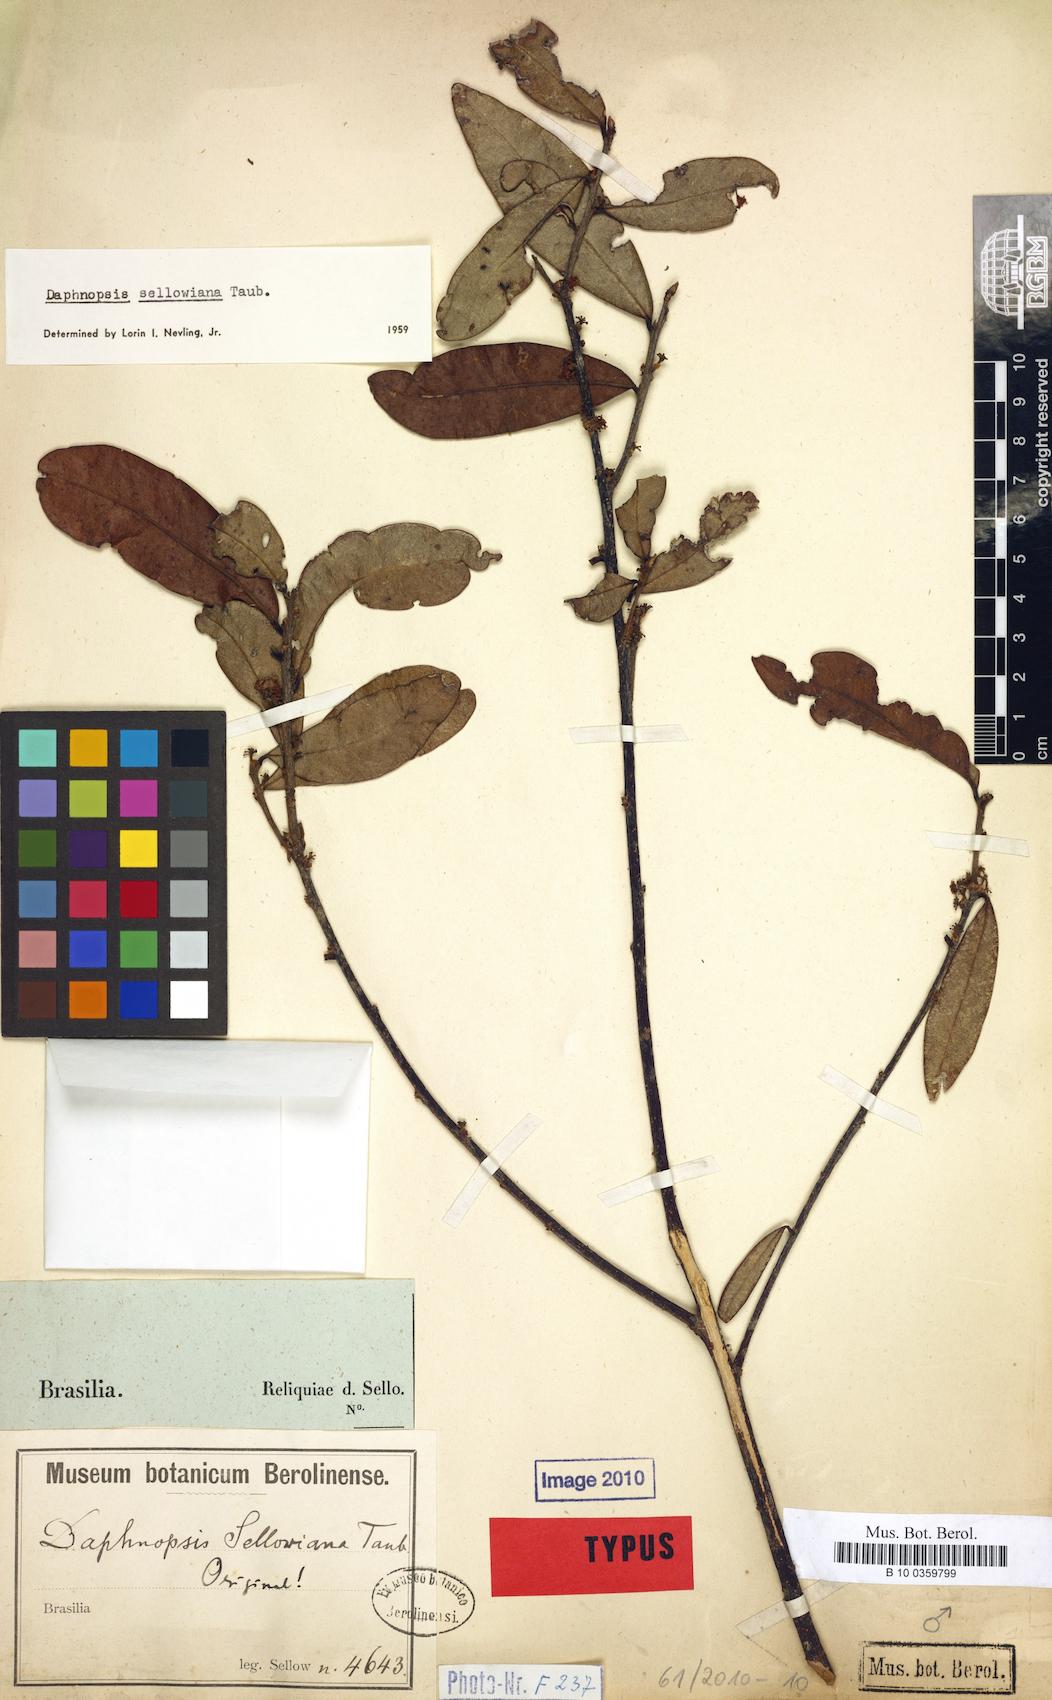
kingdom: Plantae
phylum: Tracheophyta
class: Magnoliopsida
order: Malvales
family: Thymelaeaceae
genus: Daphnopsis
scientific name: Daphnopsis sellowiana
